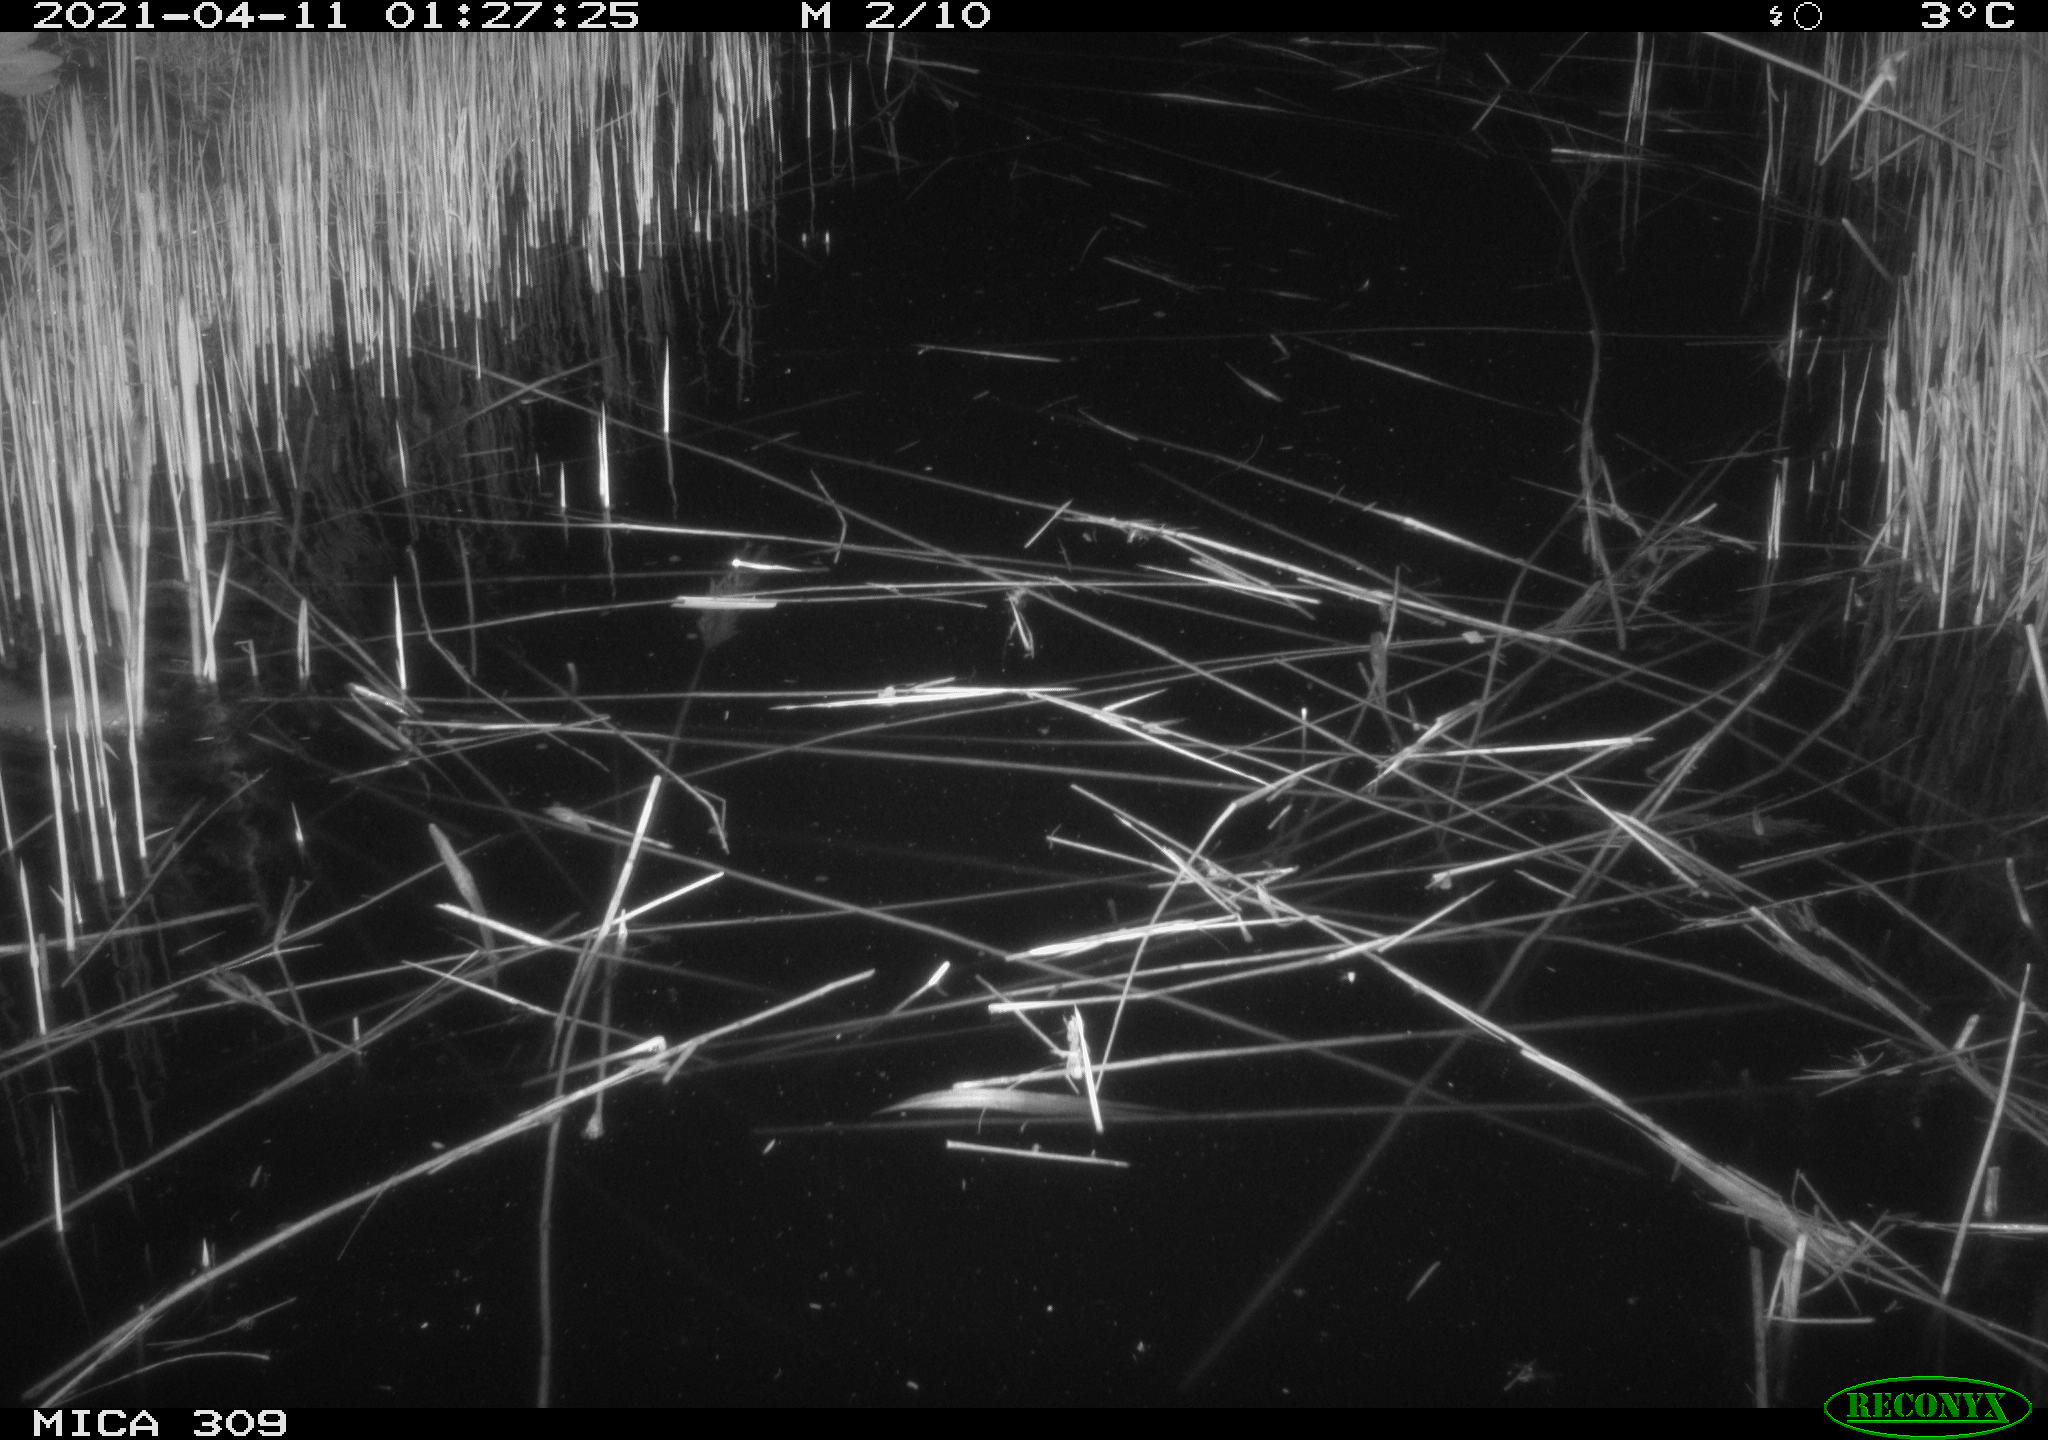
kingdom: Animalia
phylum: Chordata
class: Mammalia
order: Rodentia
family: Muridae
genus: Rattus
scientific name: Rattus norvegicus
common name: Brown rat
